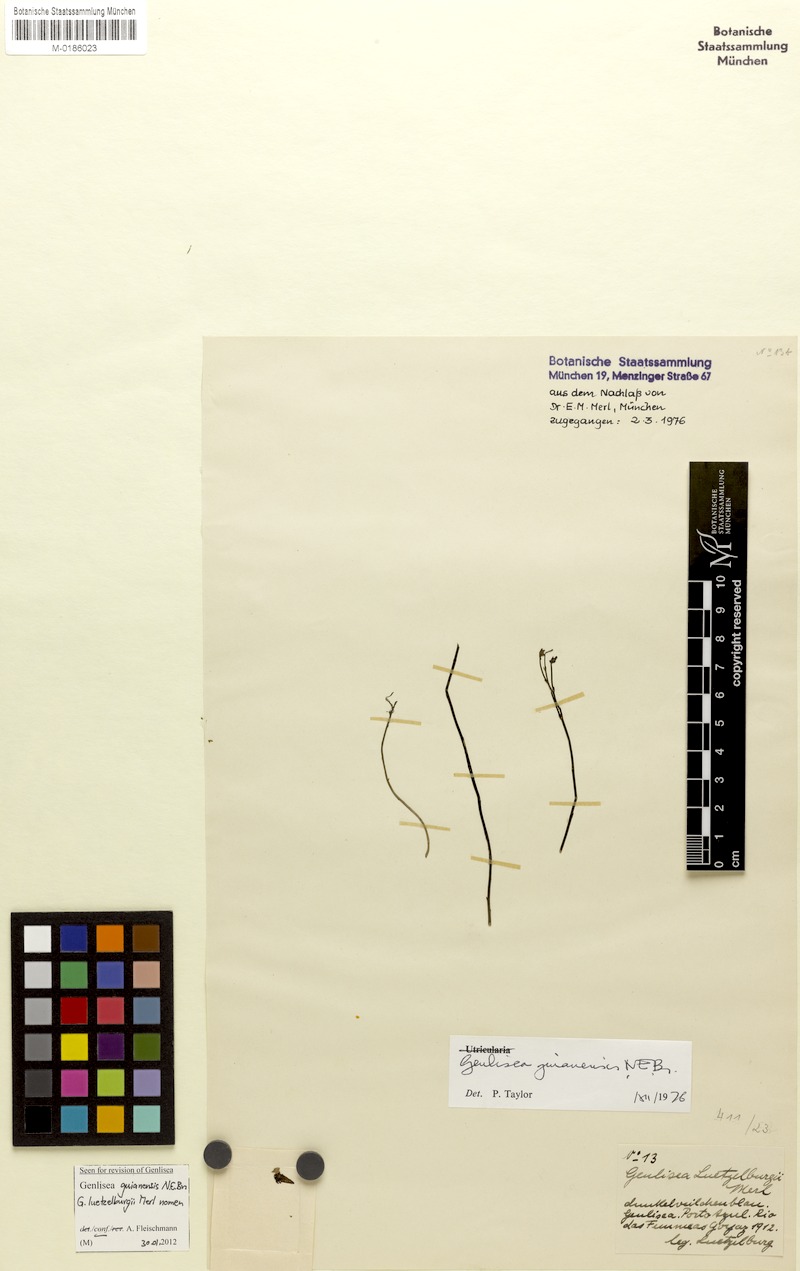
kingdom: Plantae
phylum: Tracheophyta
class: Magnoliopsida
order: Lamiales
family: Lentibulariaceae
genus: Genlisea
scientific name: Genlisea guianensis
